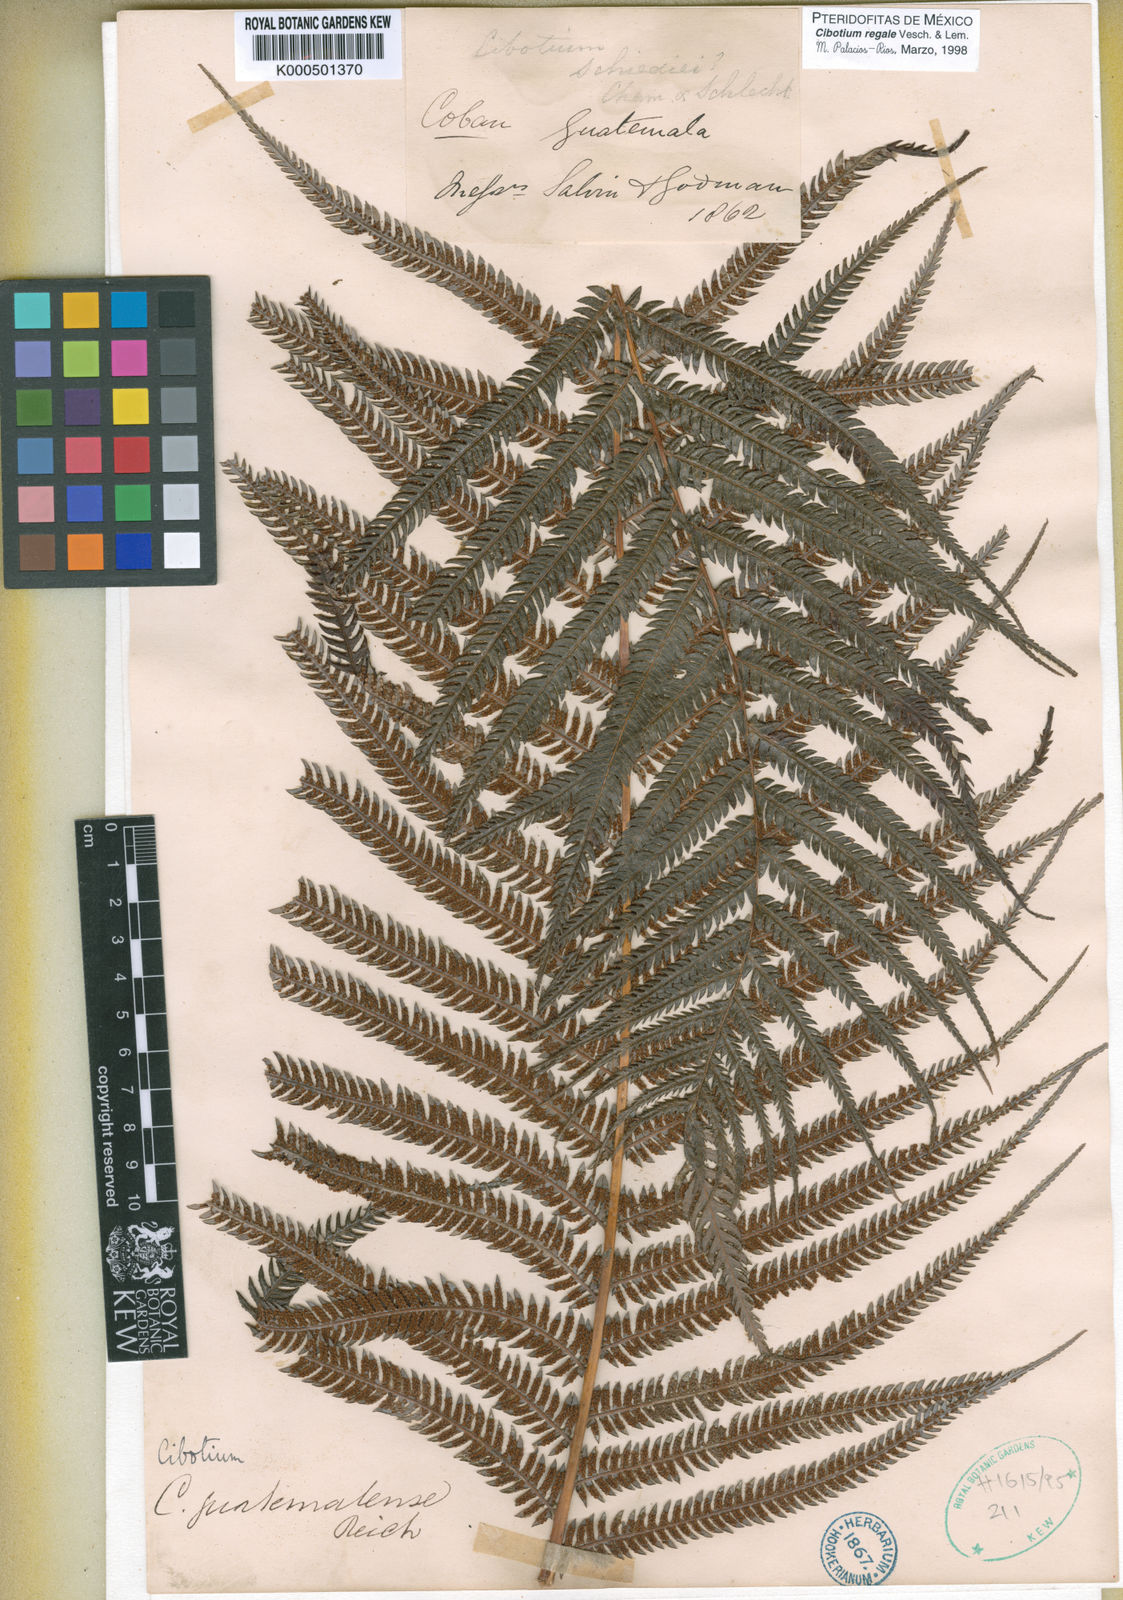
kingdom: Plantae
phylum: Tracheophyta
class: Polypodiopsida
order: Cyatheales
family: Cibotiaceae
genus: Cibotium
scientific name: Cibotium
